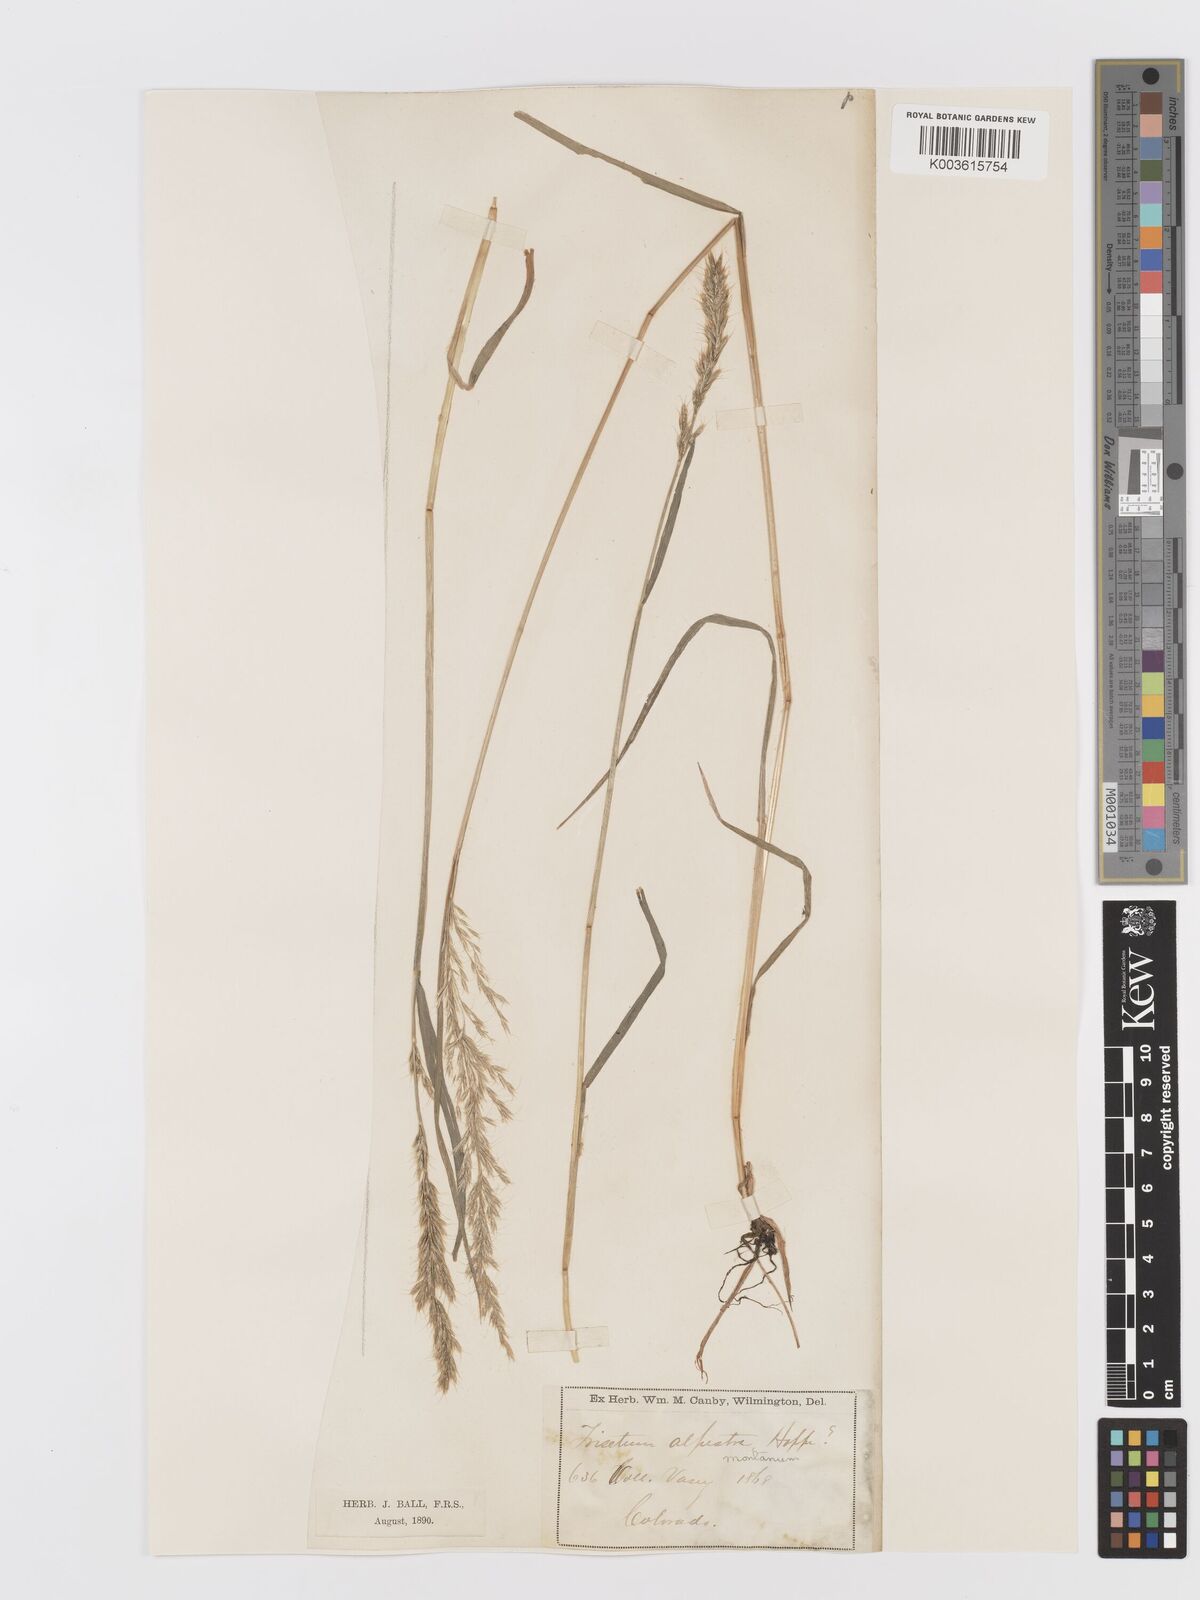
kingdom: Plantae
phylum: Tracheophyta
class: Liliopsida
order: Poales
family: Poaceae
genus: Koeleria
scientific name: Koeleria vaseyi
